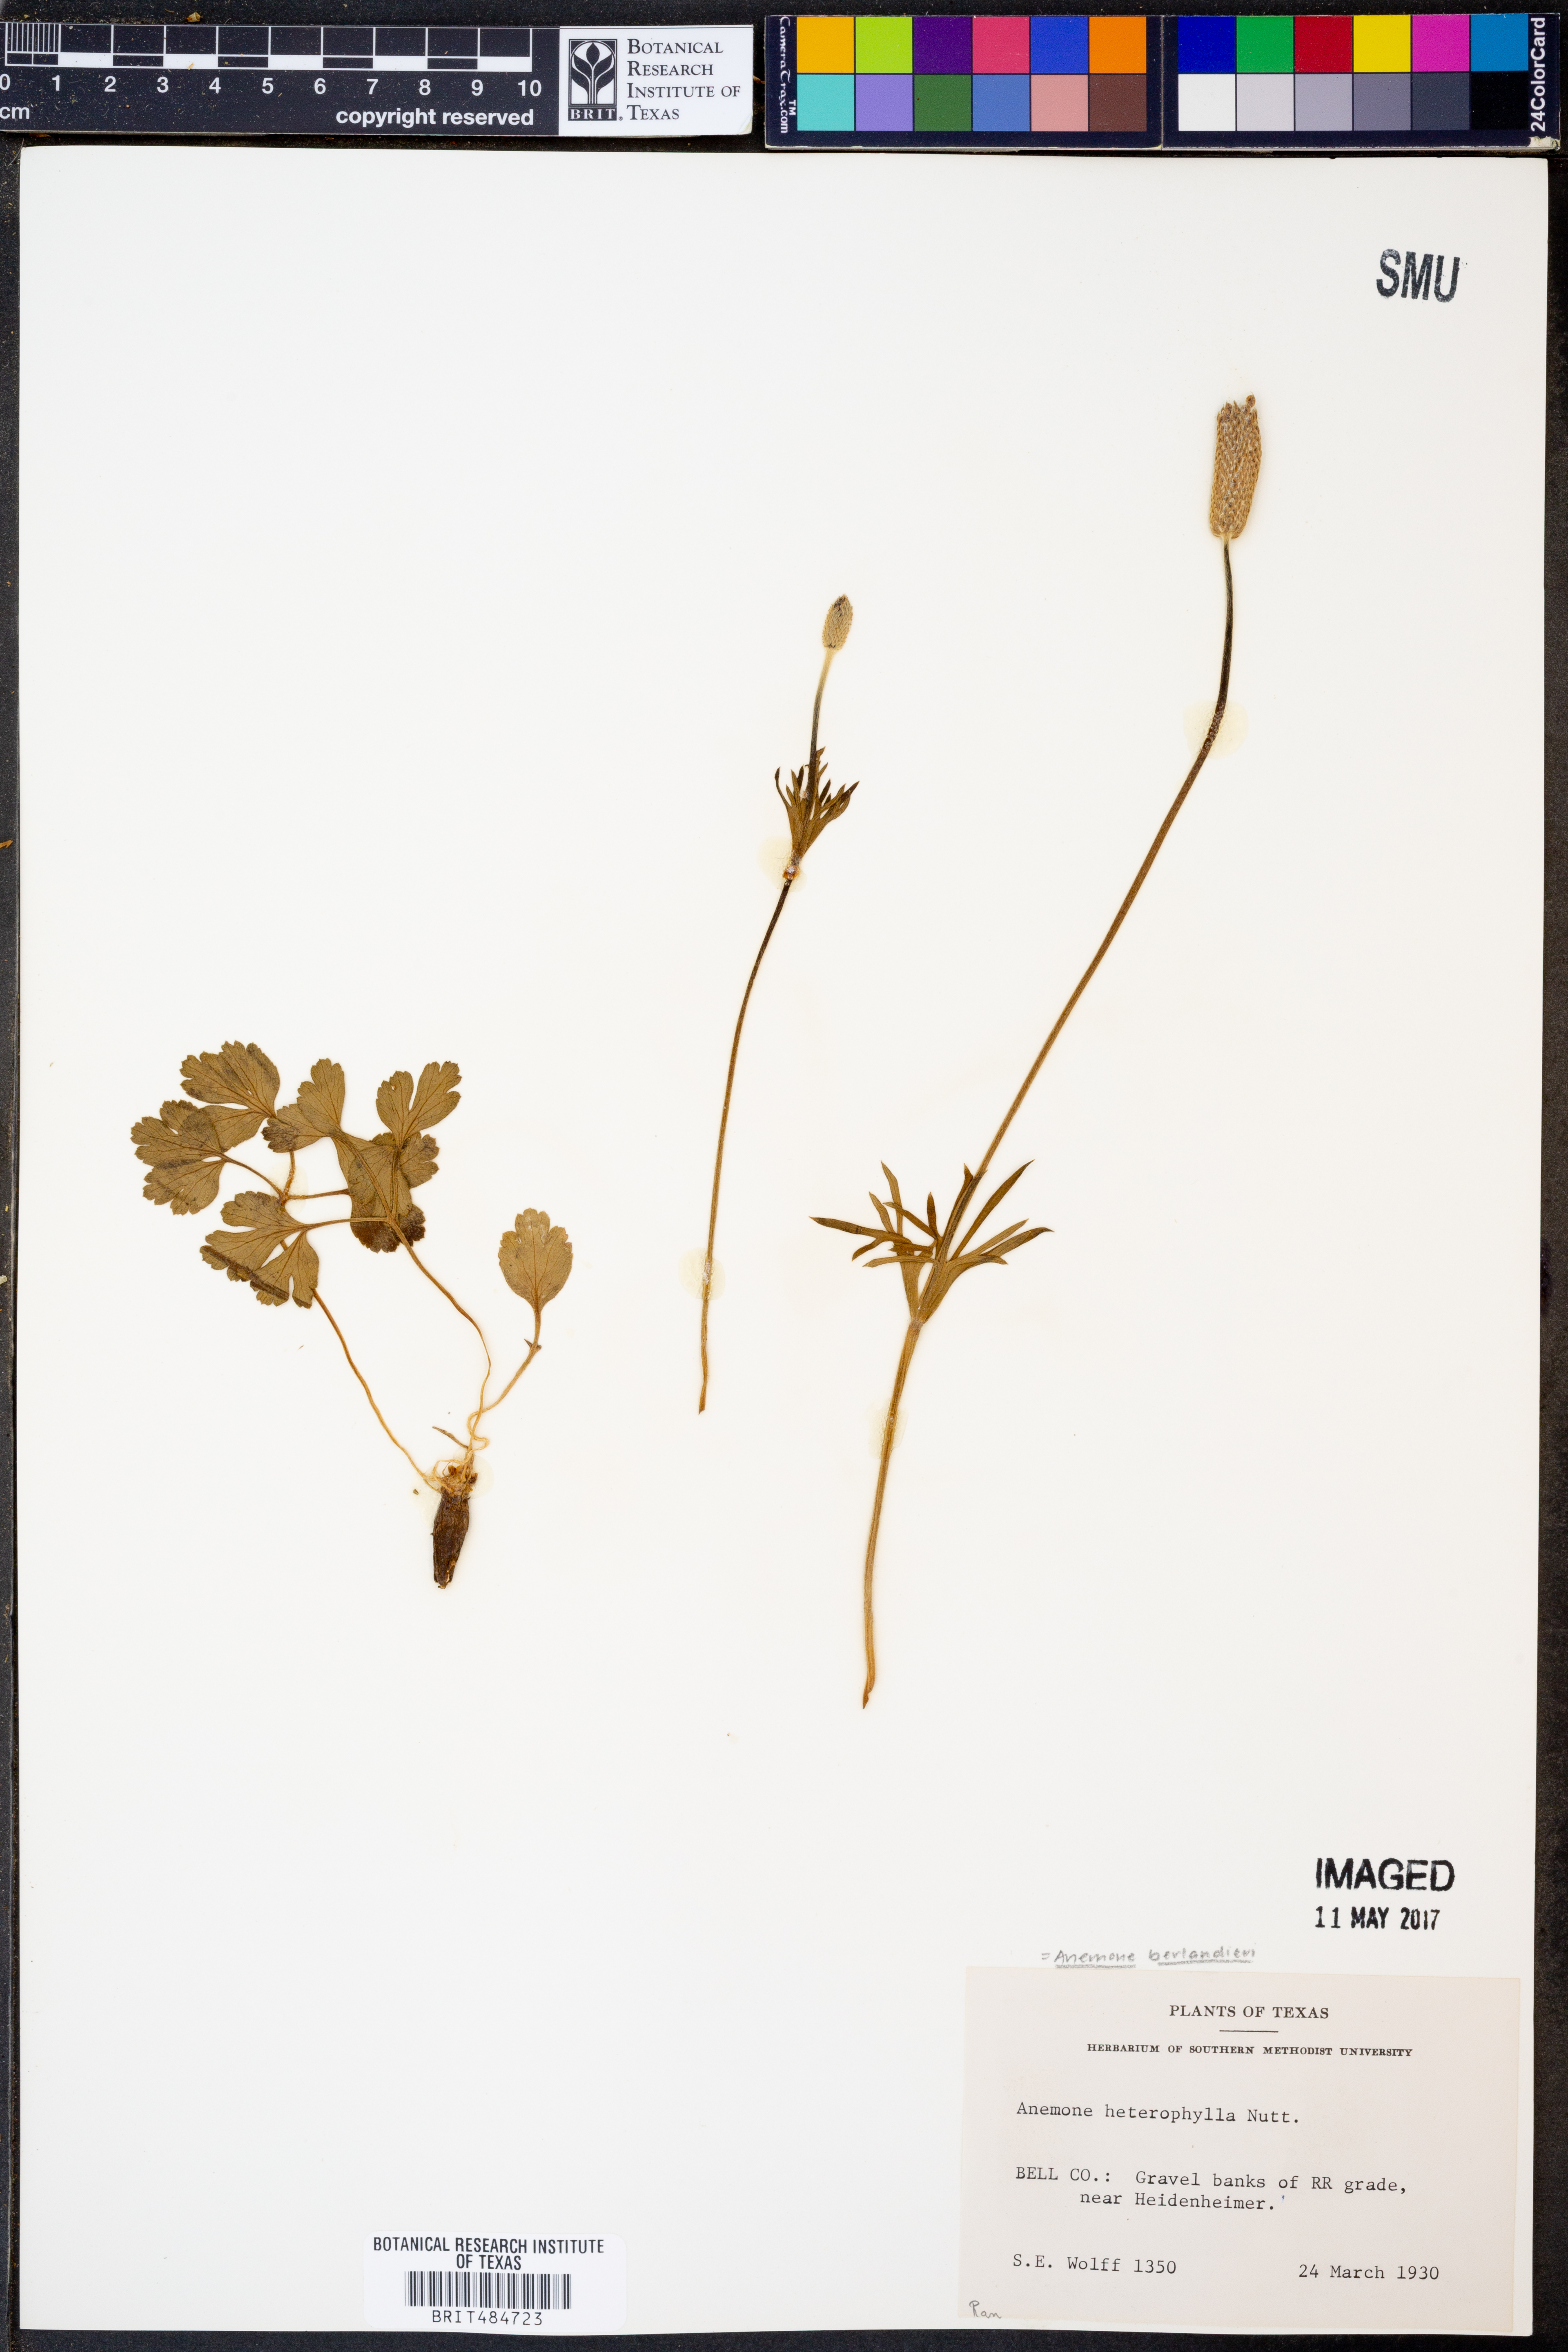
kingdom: Plantae
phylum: Tracheophyta
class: Magnoliopsida
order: Ranunculales
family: Ranunculaceae
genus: Anemone
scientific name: Anemone berlandieri
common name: Ten-petal anemone
